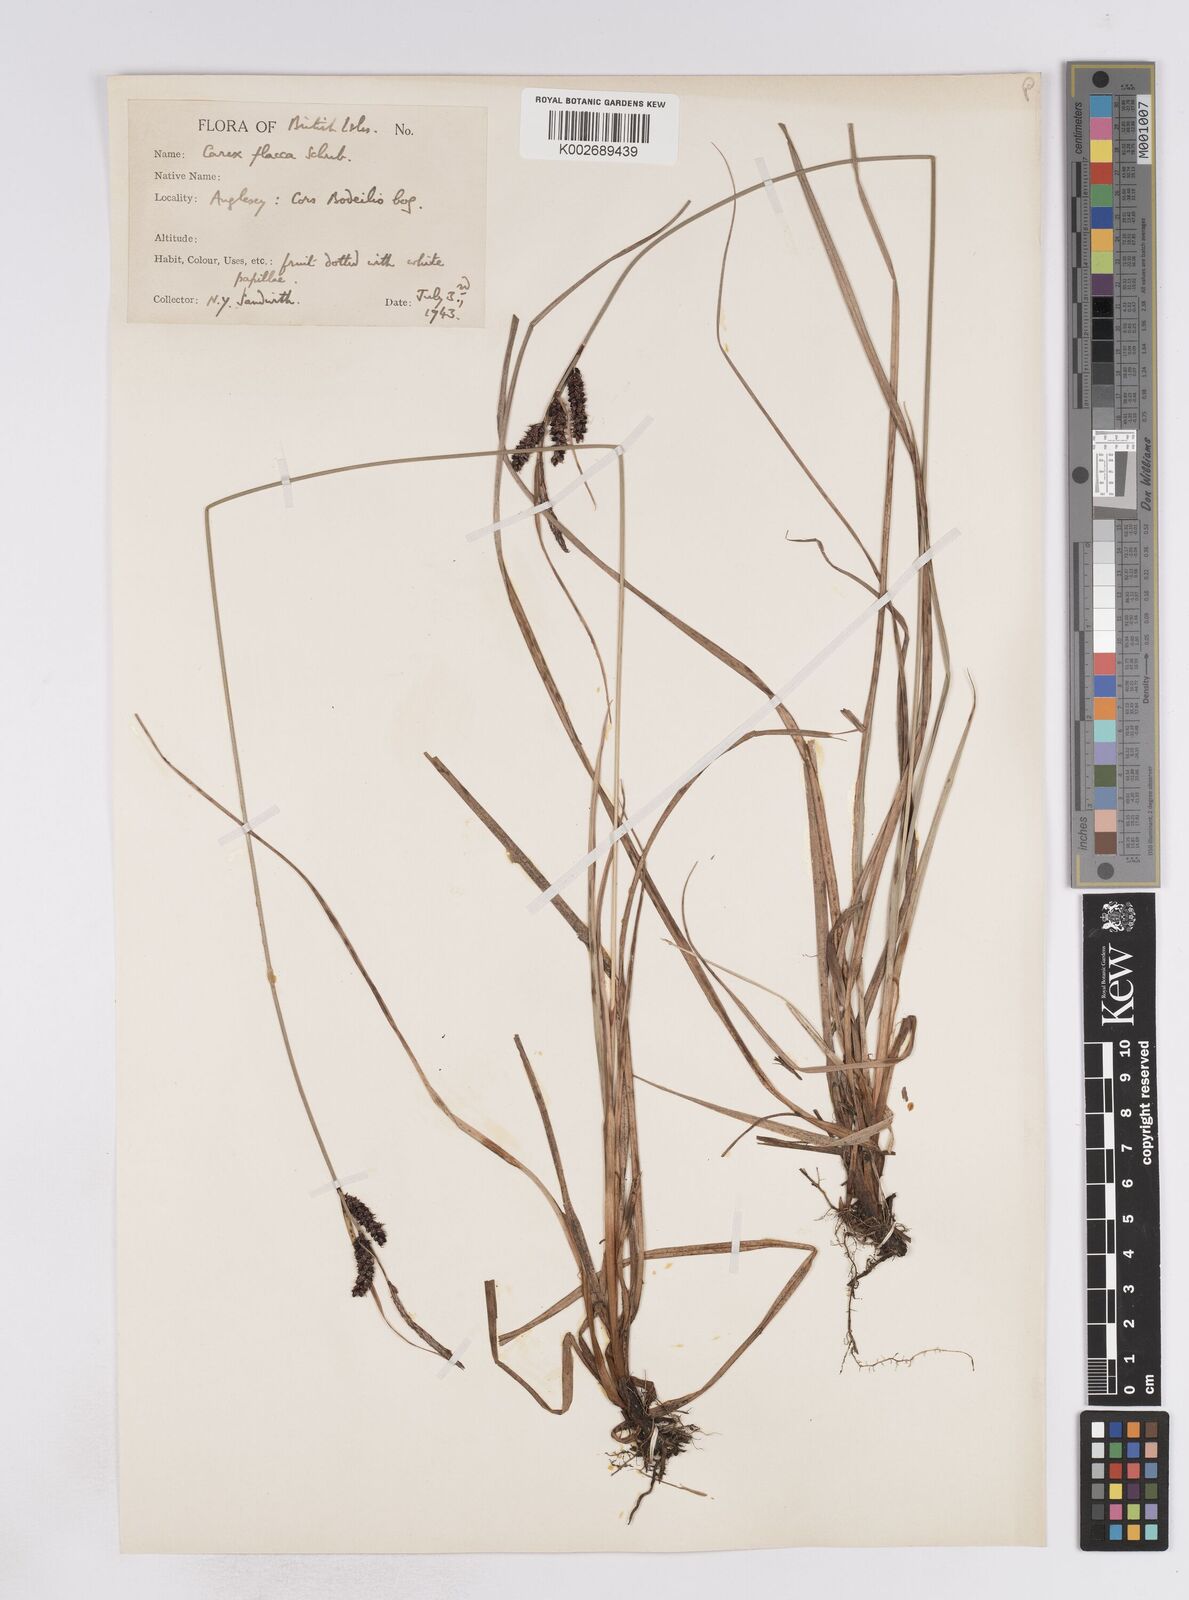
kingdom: Plantae
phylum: Tracheophyta
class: Liliopsida
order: Poales
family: Cyperaceae
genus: Carex
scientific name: Carex flacca
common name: Glaucous sedge
